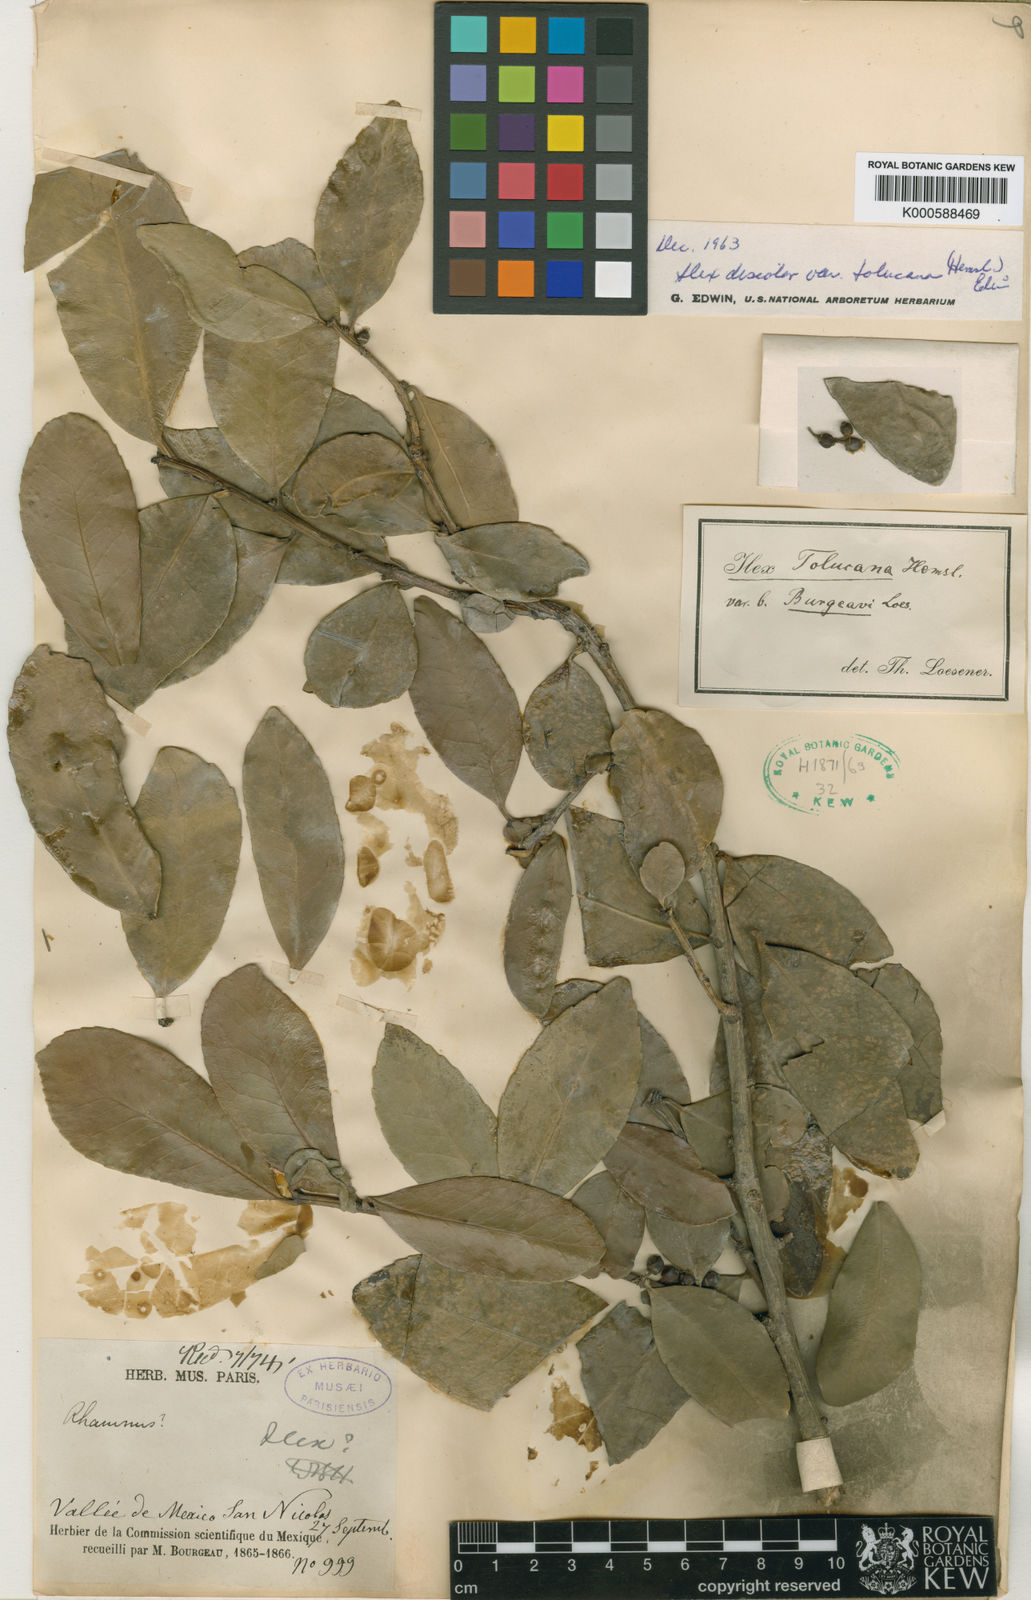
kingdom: Plantae
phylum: Tracheophyta
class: Magnoliopsida
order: Aquifoliales
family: Aquifoliaceae
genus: Ilex
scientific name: Ilex discolor
